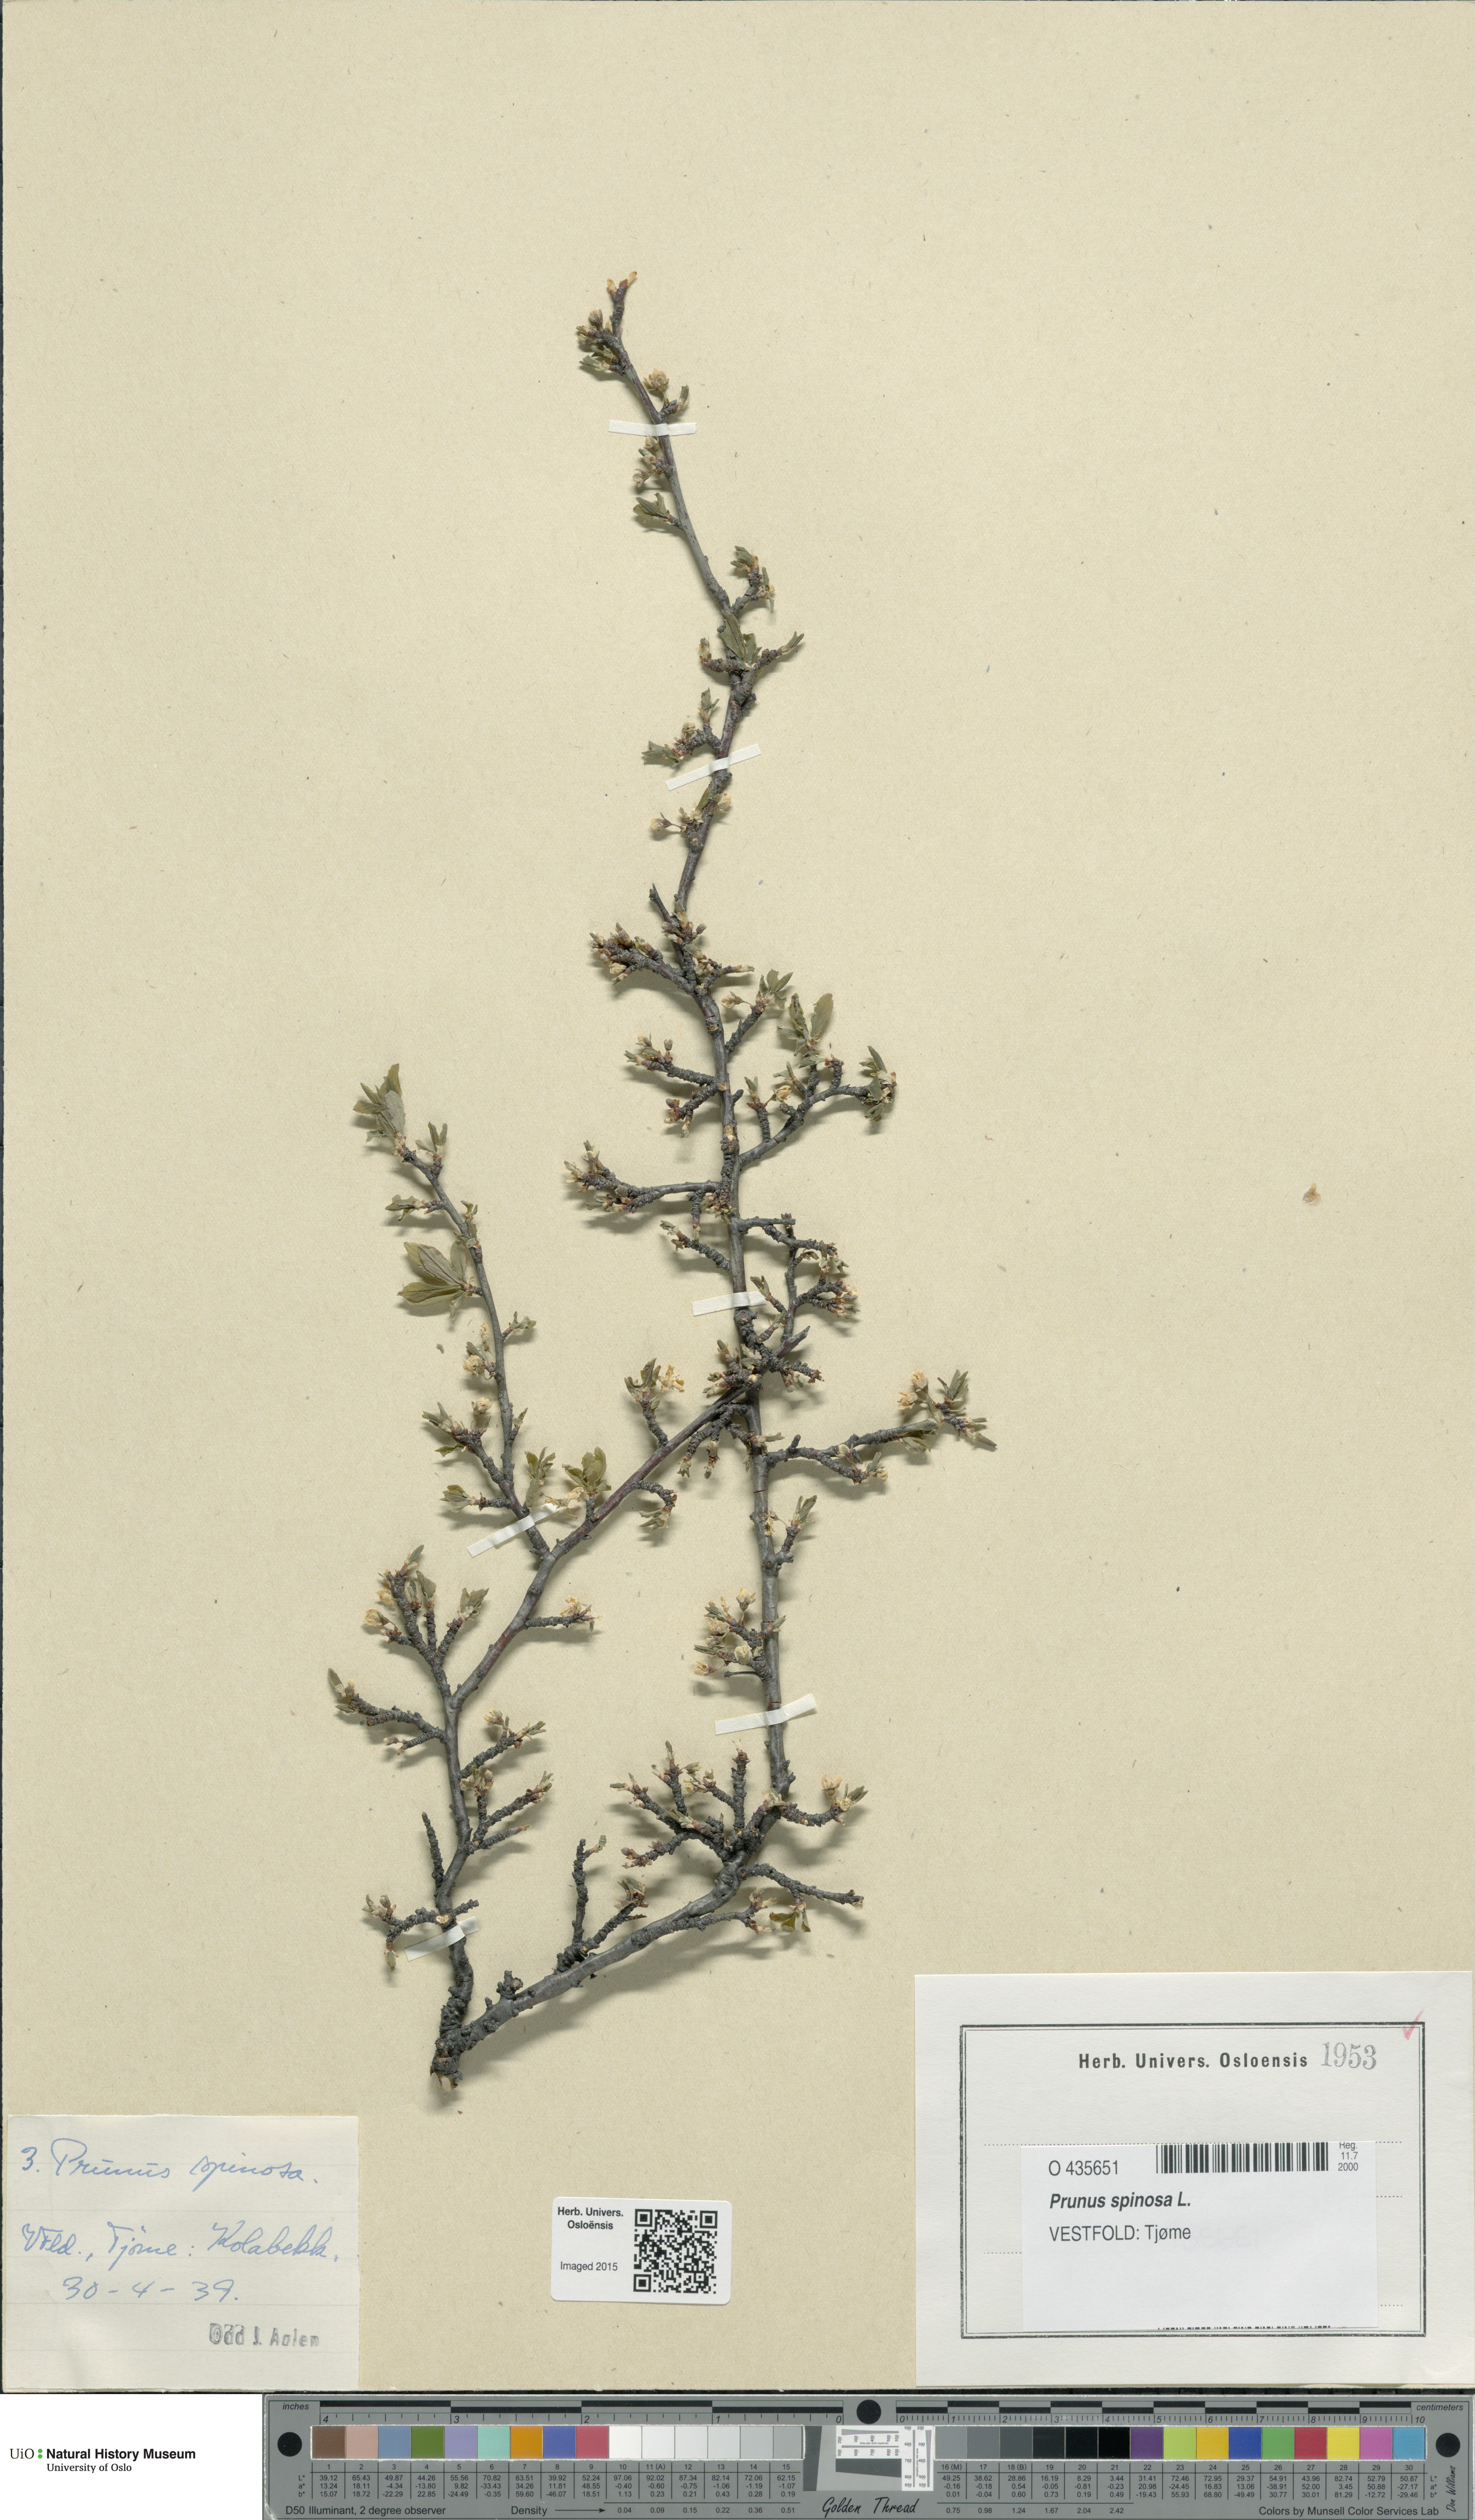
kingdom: Plantae
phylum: Tracheophyta
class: Magnoliopsida
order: Rosales
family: Rosaceae
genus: Prunus
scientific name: Prunus spinosa
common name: Blackthorn
